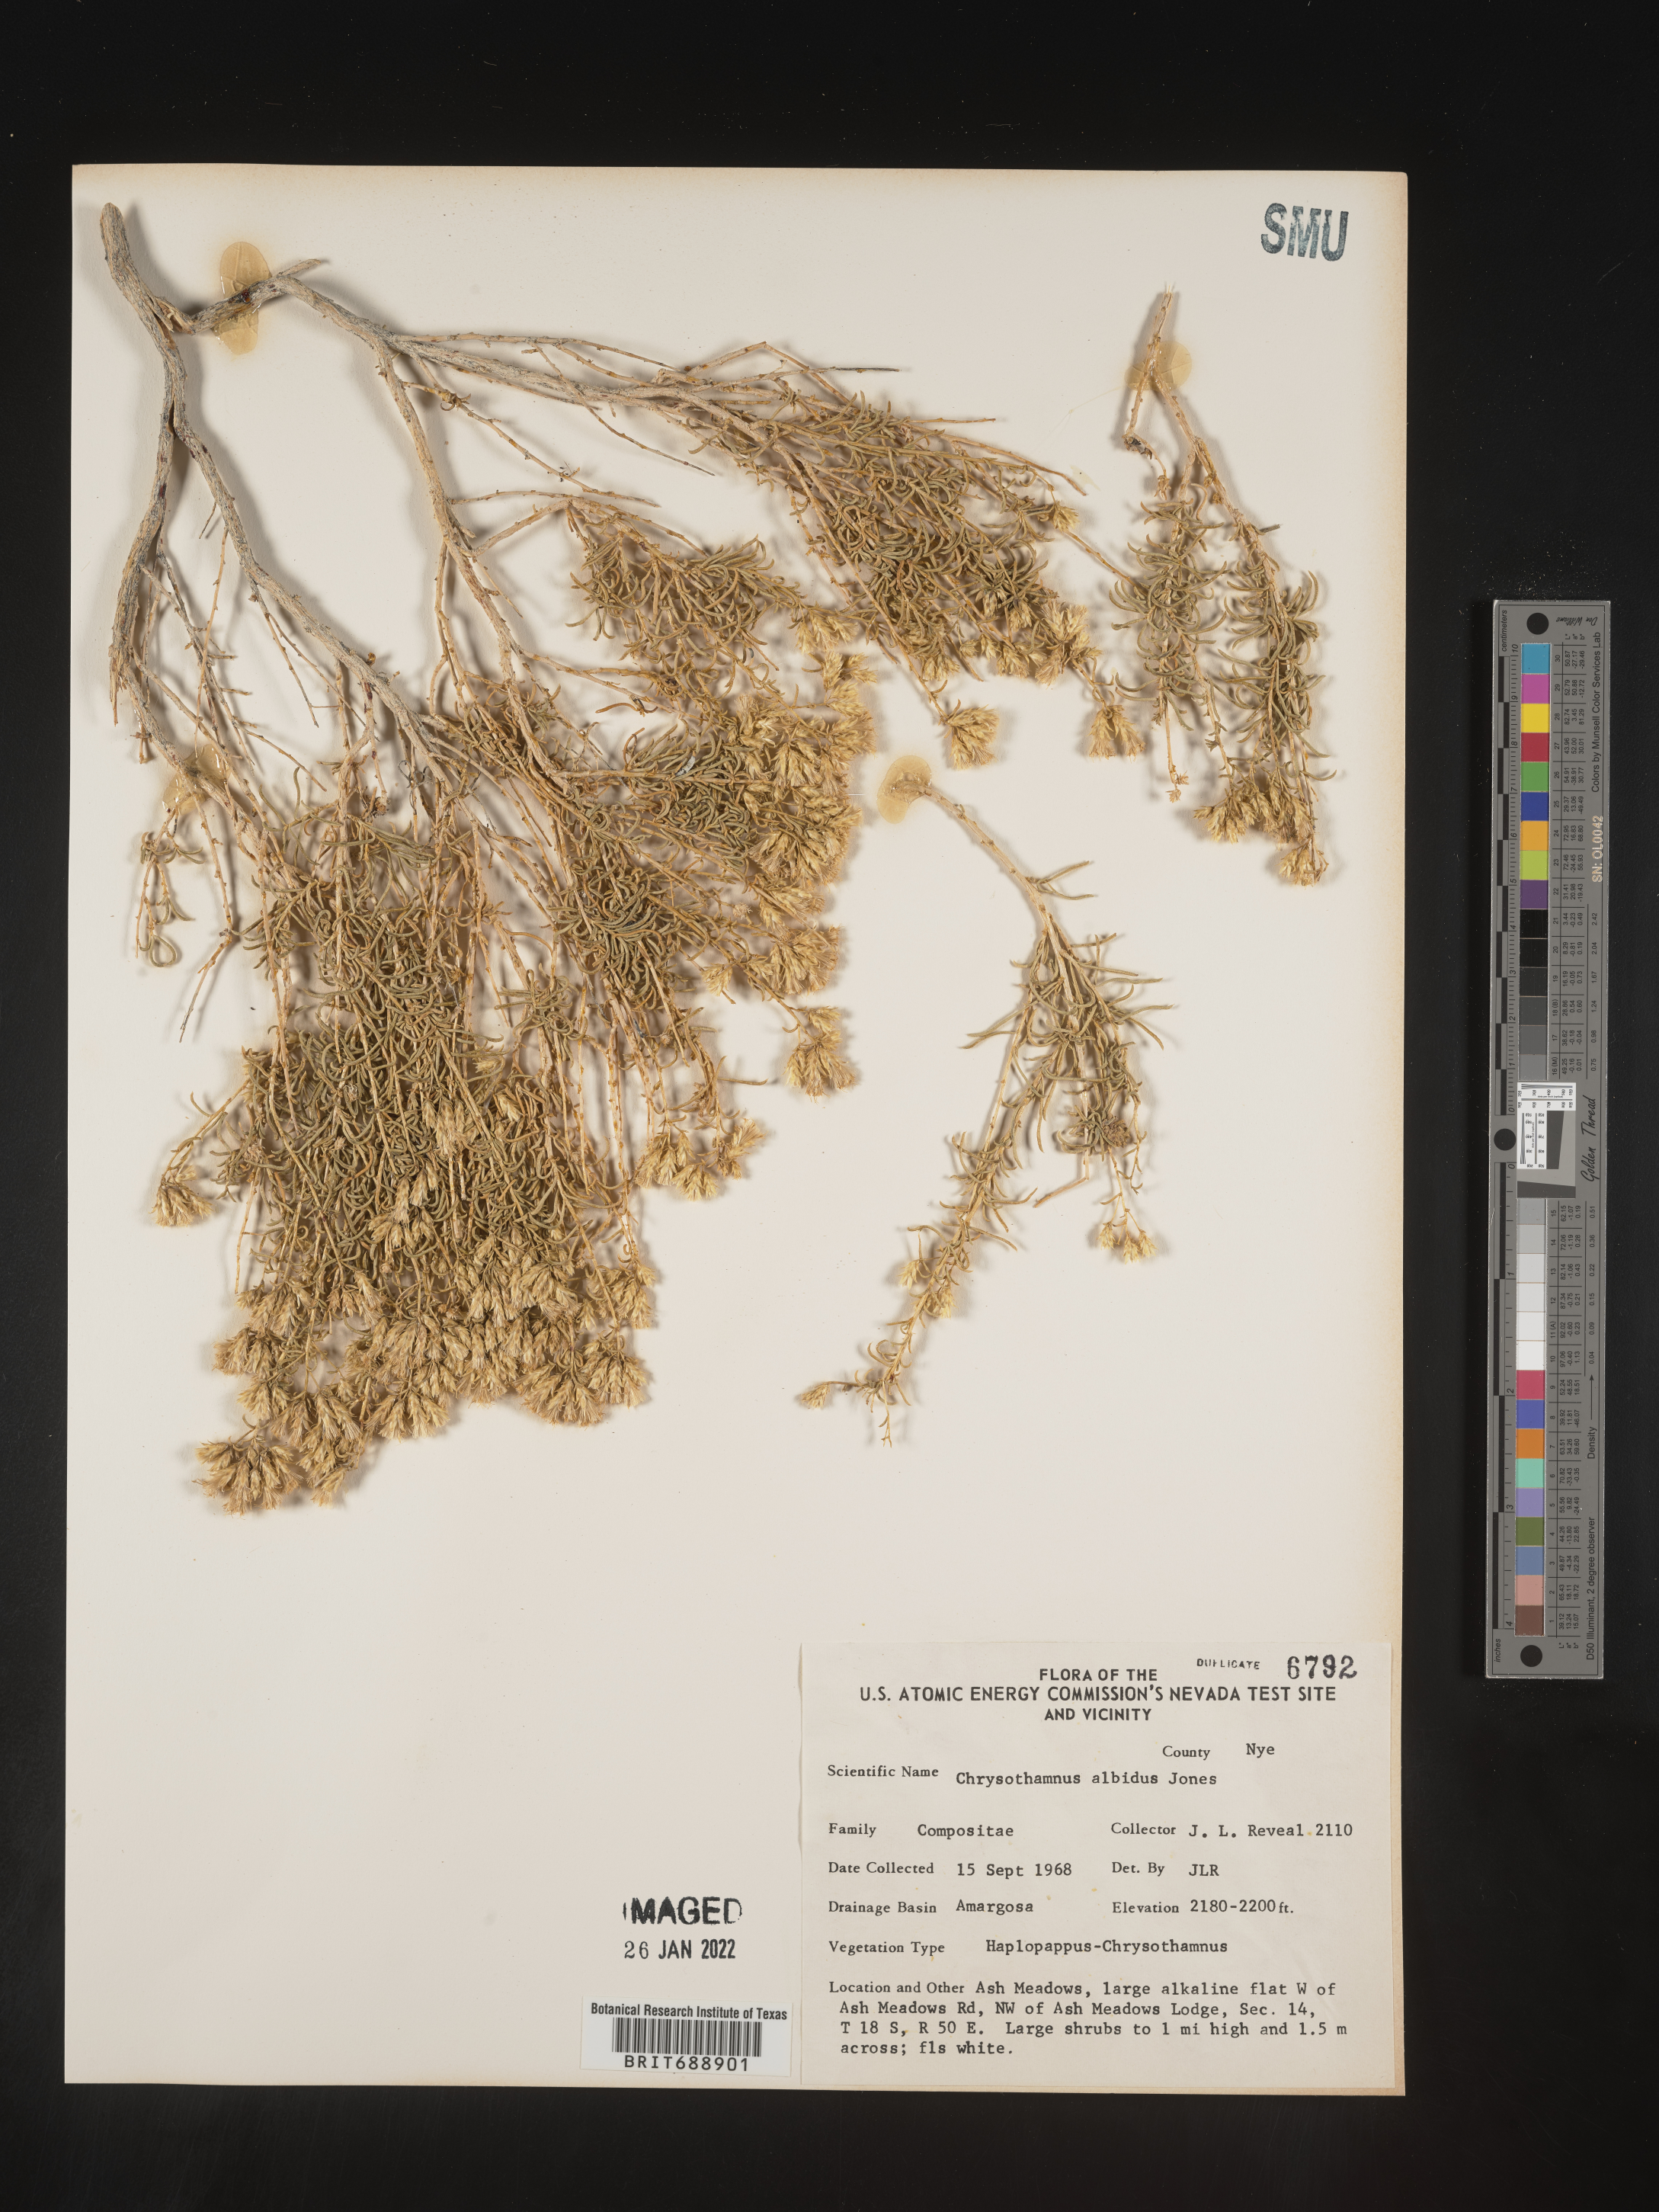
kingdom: Plantae
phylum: Tracheophyta
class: Magnoliopsida
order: Asterales
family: Asteraceae
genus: Chrysothamnus
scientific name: Chrysothamnus
